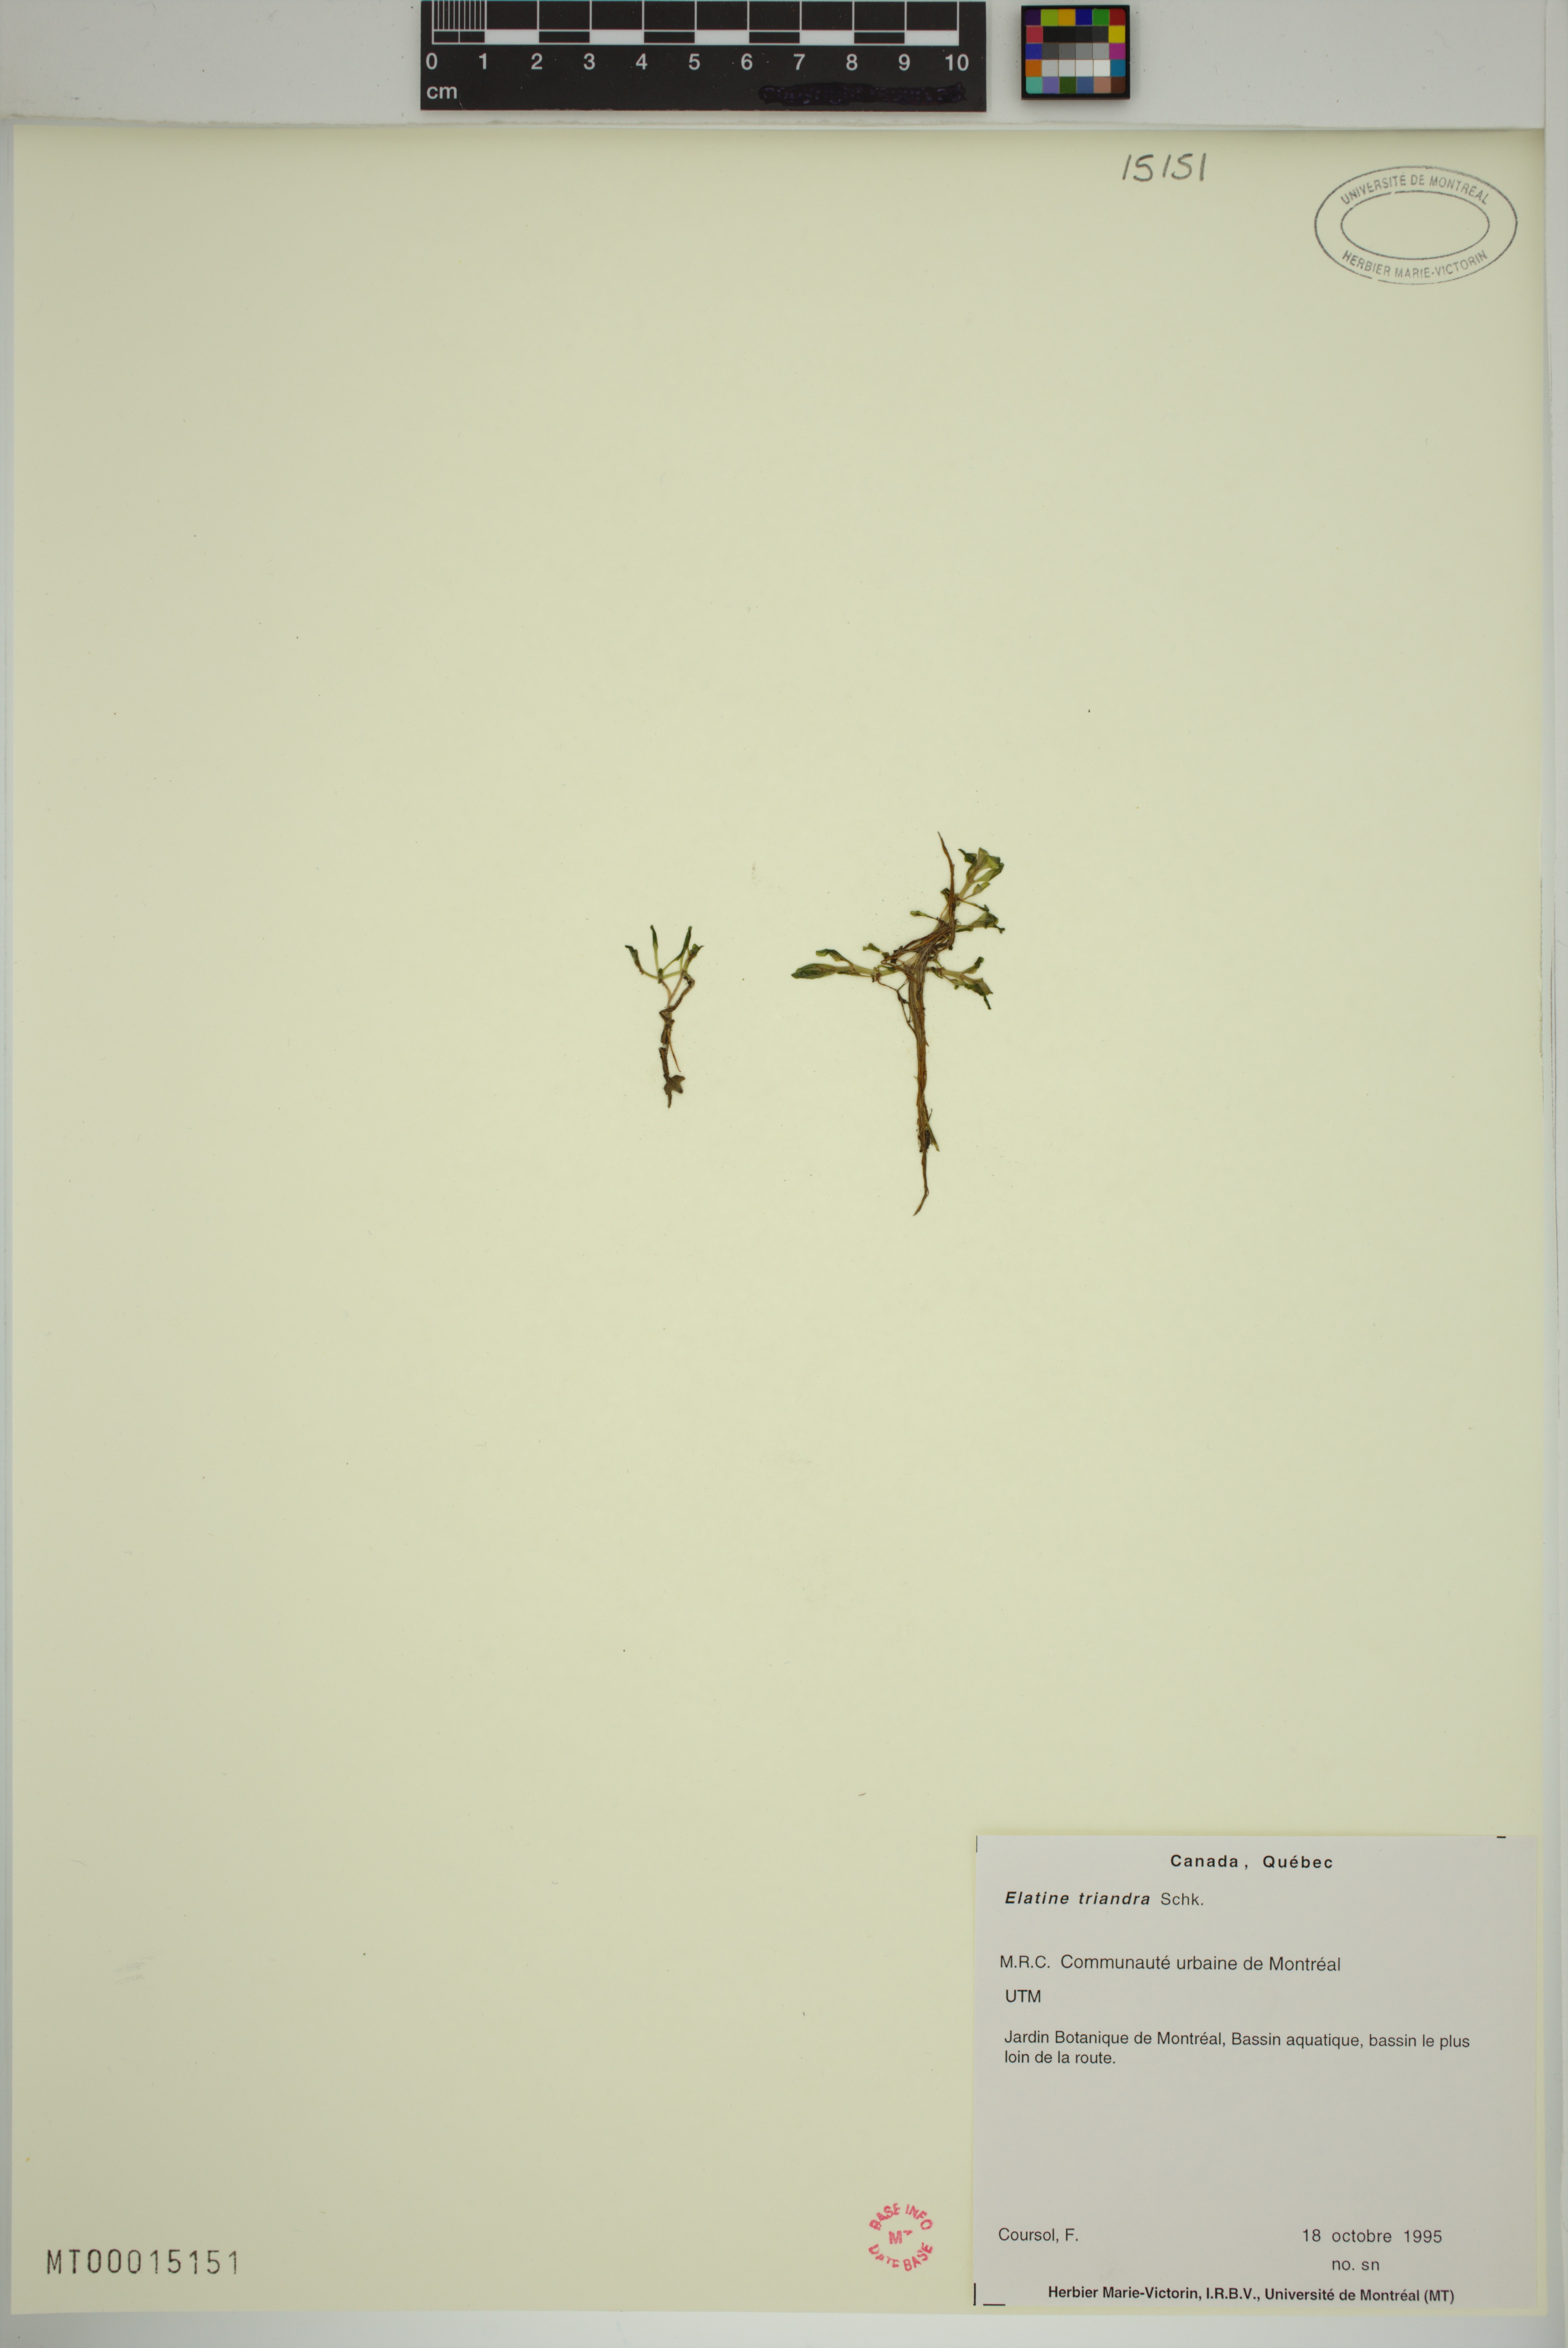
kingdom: Plantae
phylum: Tracheophyta
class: Magnoliopsida
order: Malpighiales
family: Elatinaceae
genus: Elatine
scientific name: Elatine triandra
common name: Three-stamened waterwort
